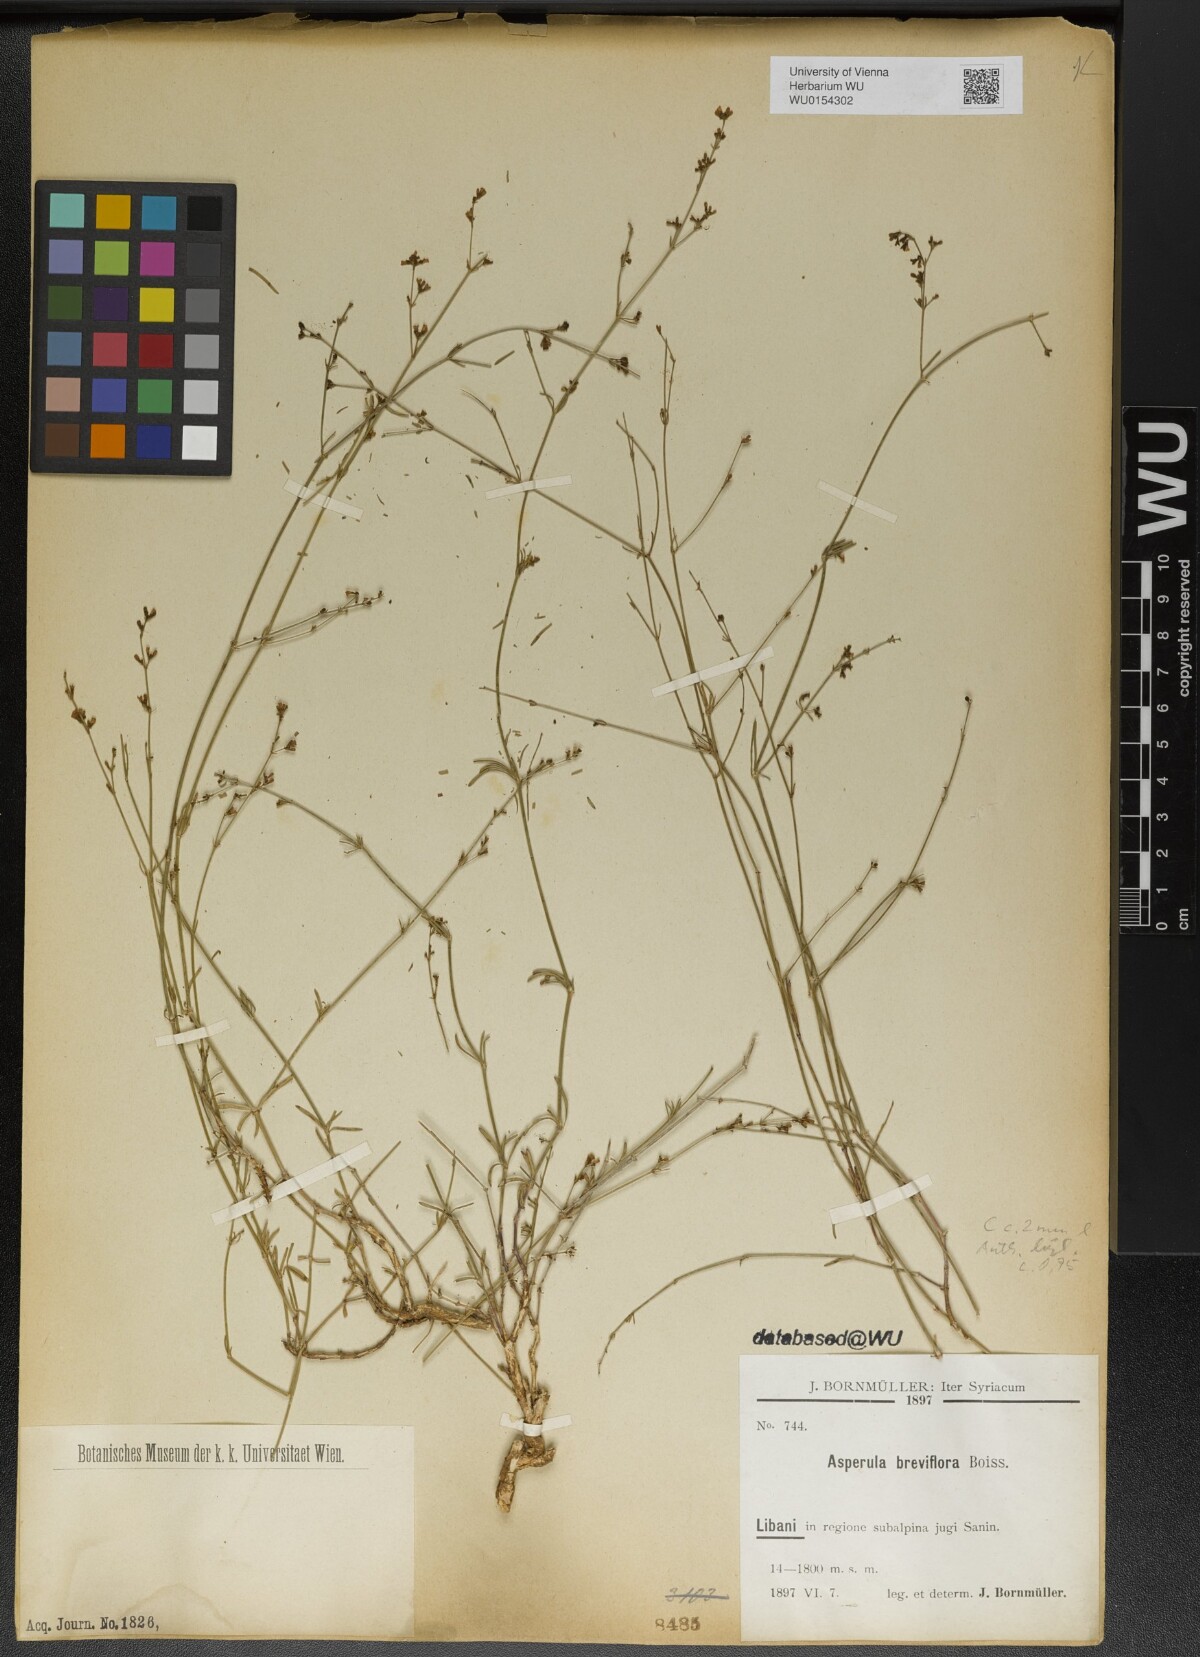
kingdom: Plantae
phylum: Tracheophyta
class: Magnoliopsida
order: Gentianales
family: Rubiaceae
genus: Cynanchica
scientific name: Cynanchica breviflora
